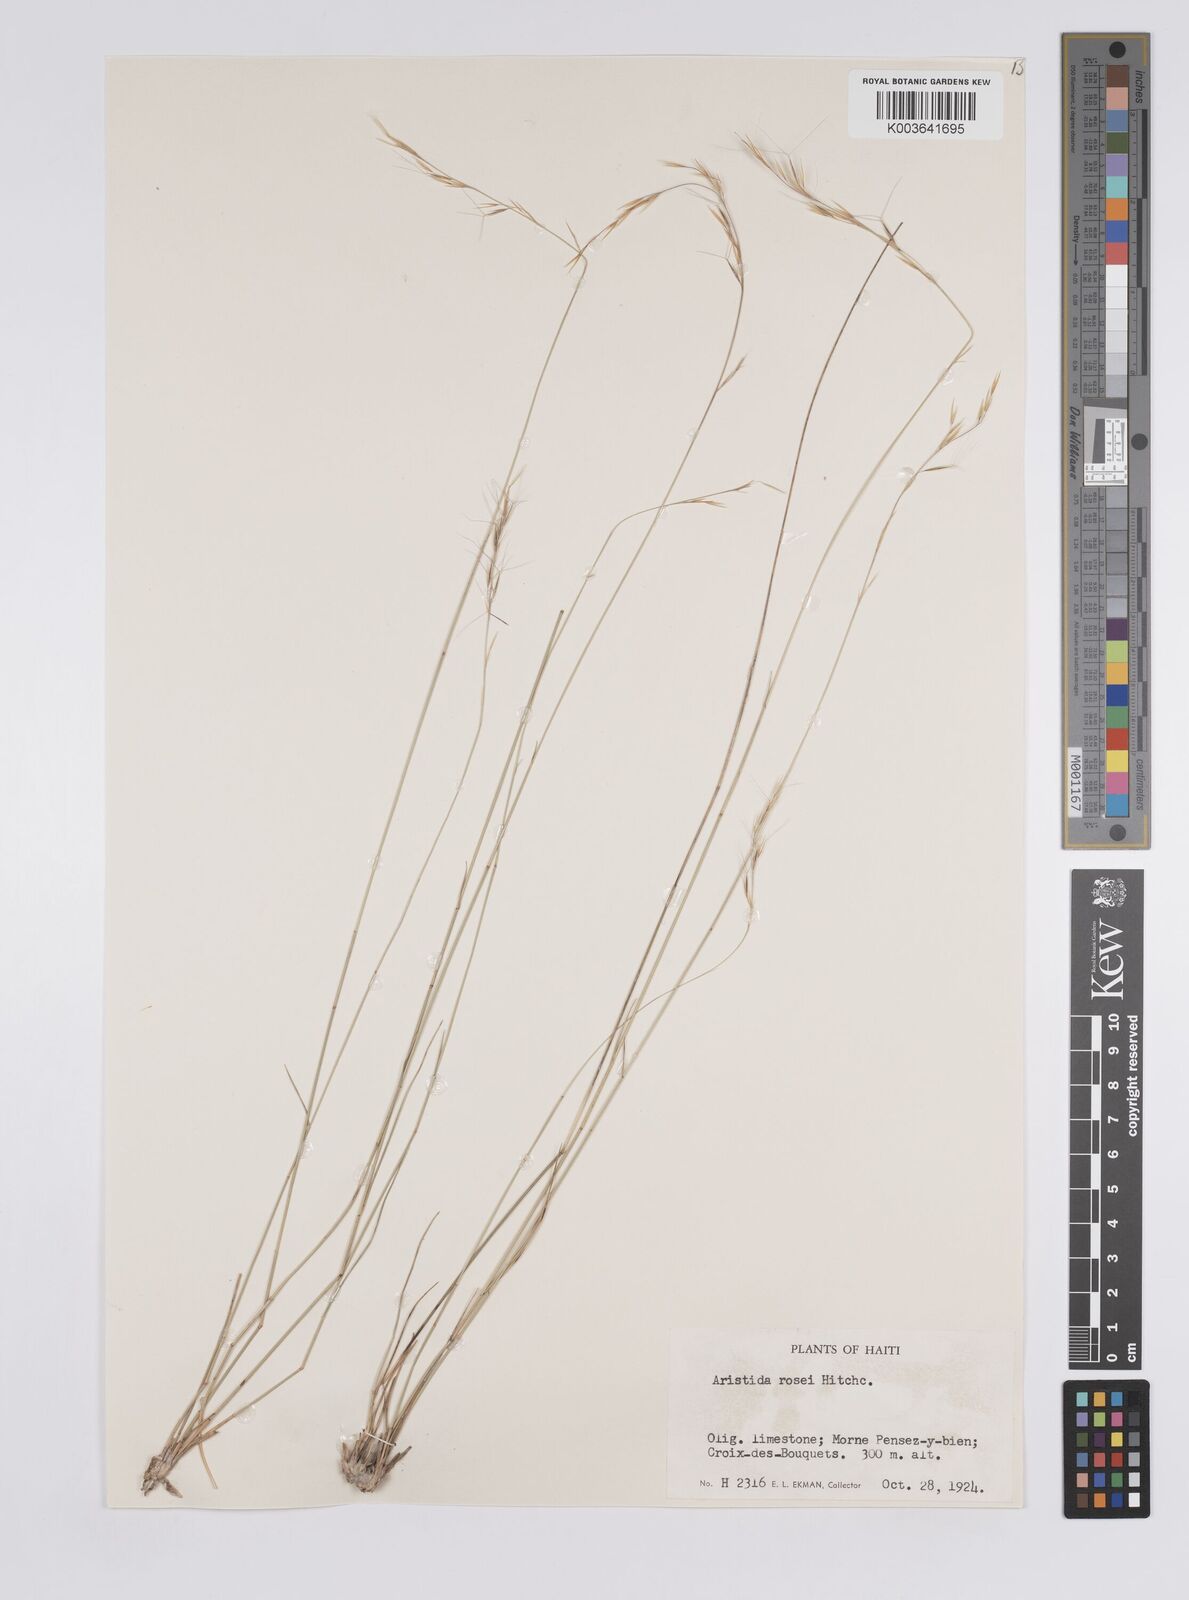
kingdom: Plantae
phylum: Tracheophyta
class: Liliopsida
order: Poales
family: Poaceae
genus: Aristida
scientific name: Aristida rosei
